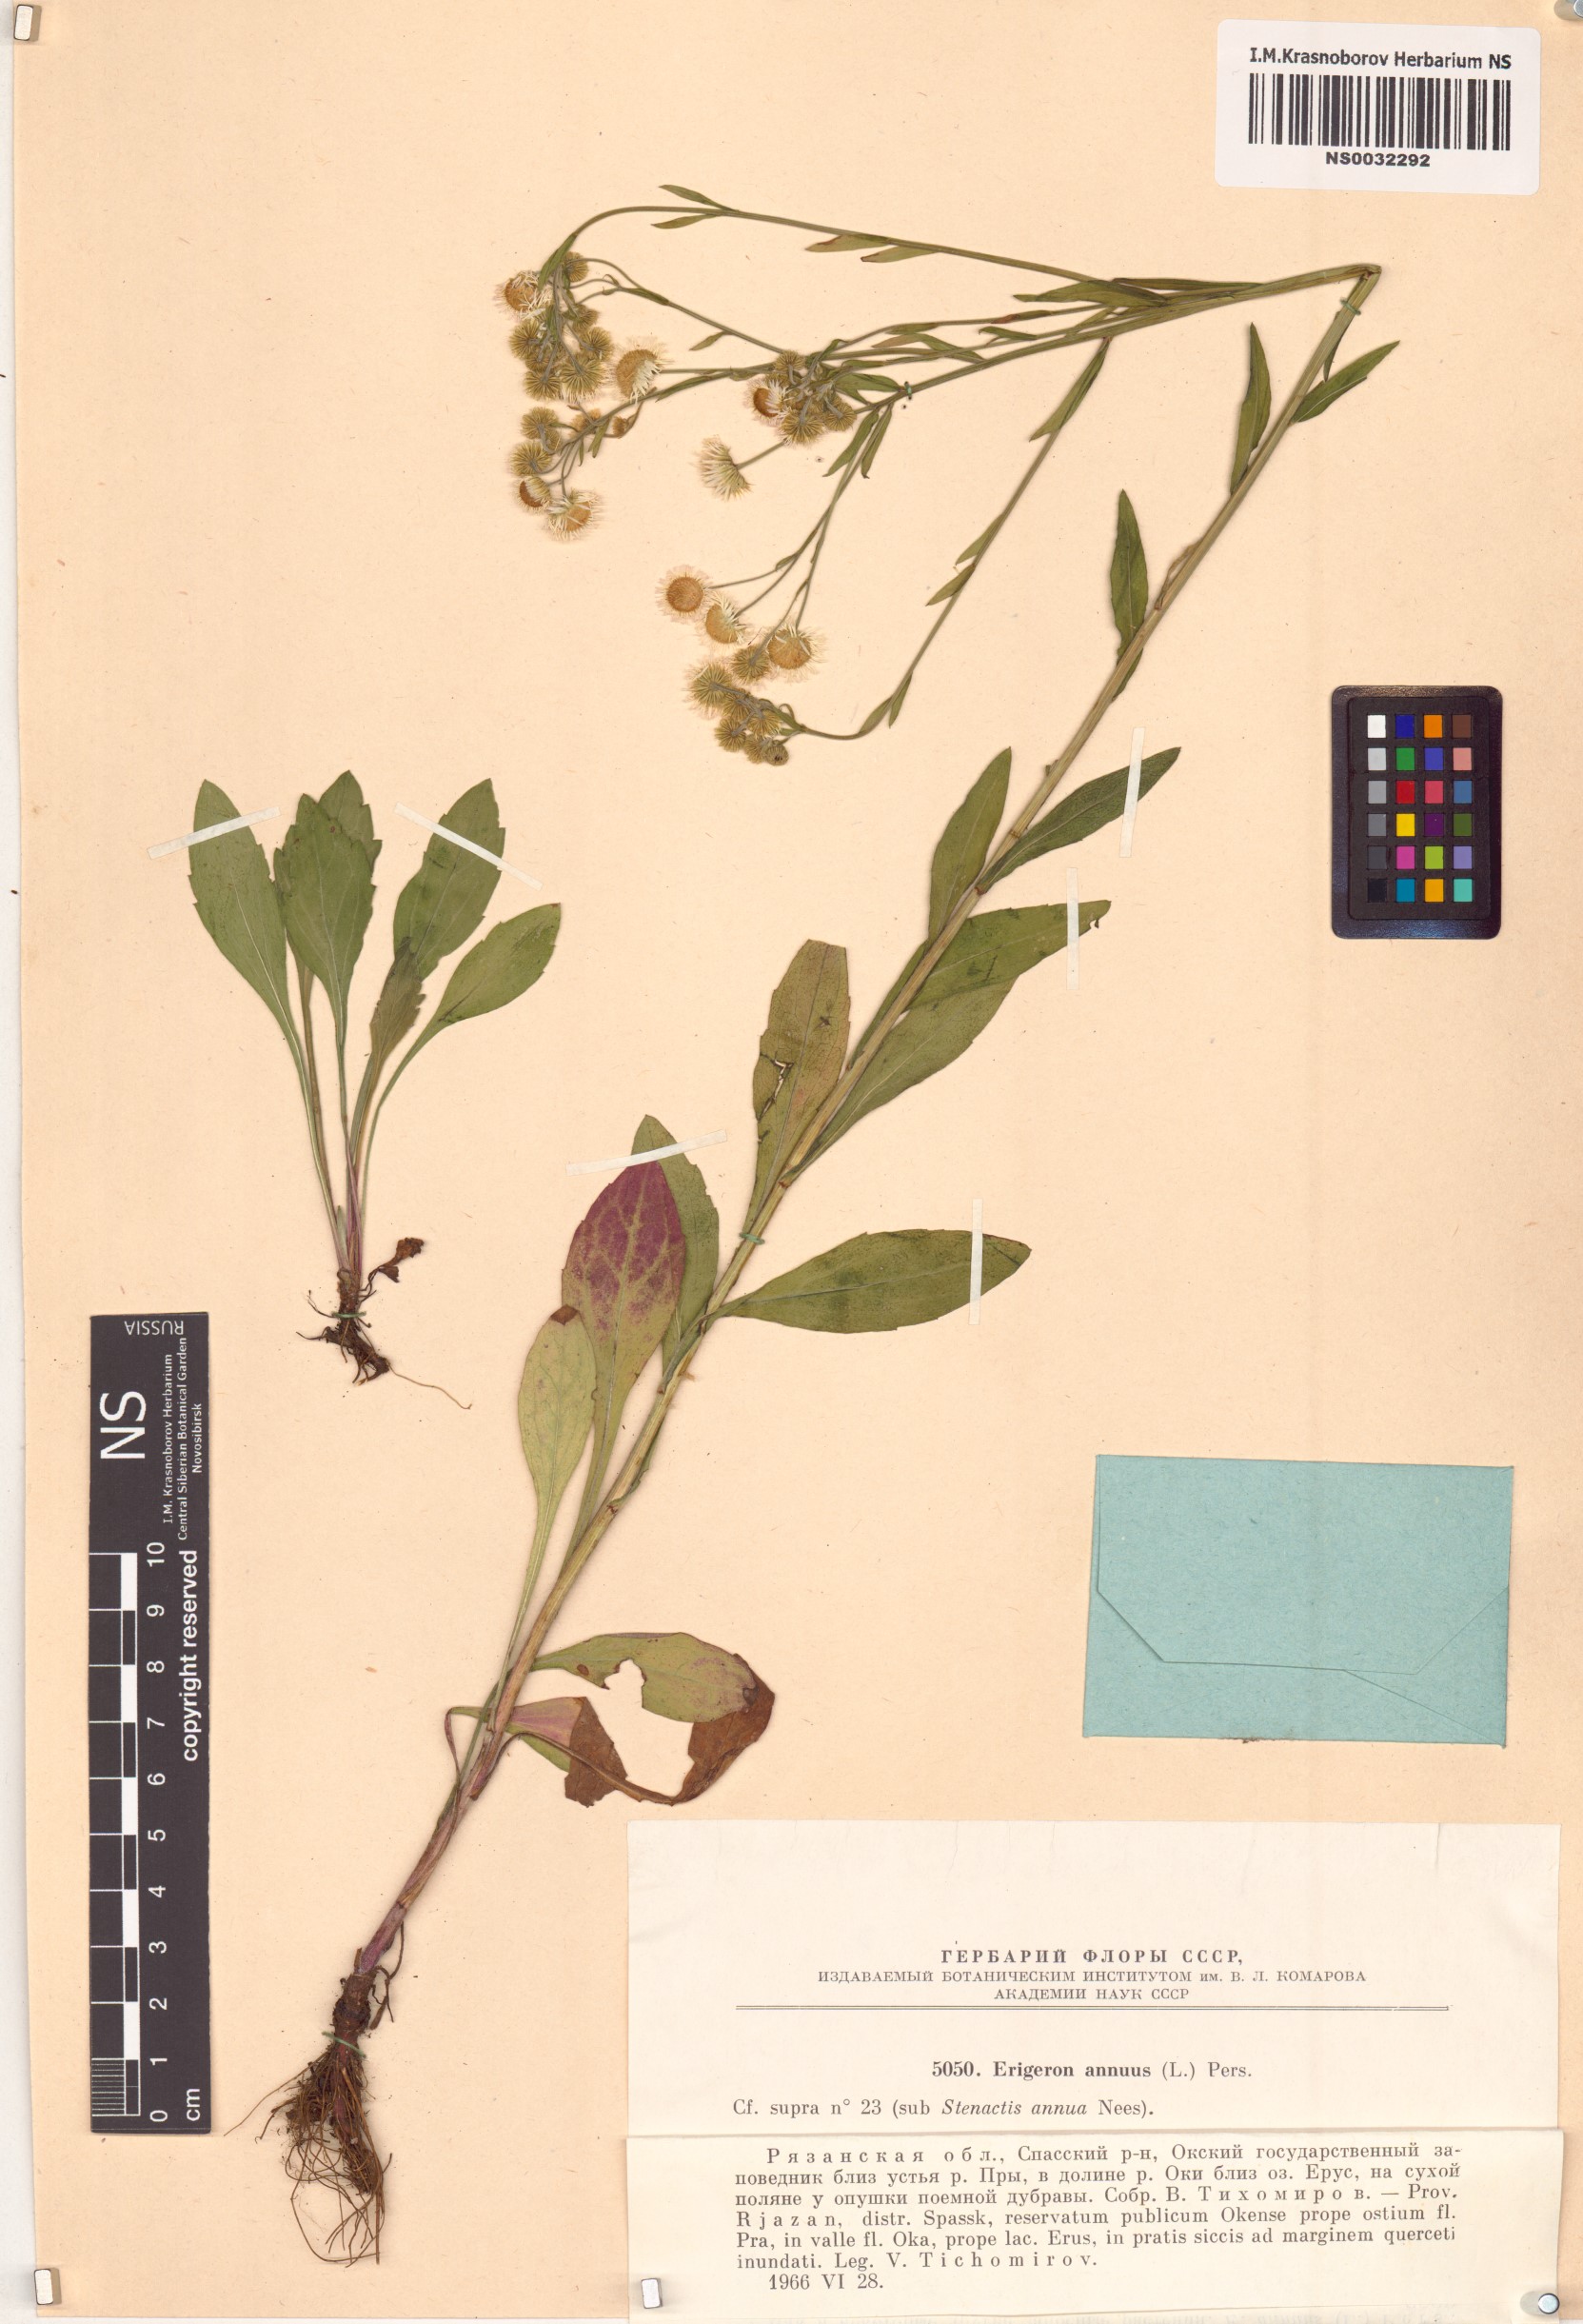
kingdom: Plantae
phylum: Tracheophyta
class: Magnoliopsida
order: Asterales
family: Asteraceae
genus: Erigeron
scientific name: Erigeron annuus
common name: Tall fleabane
